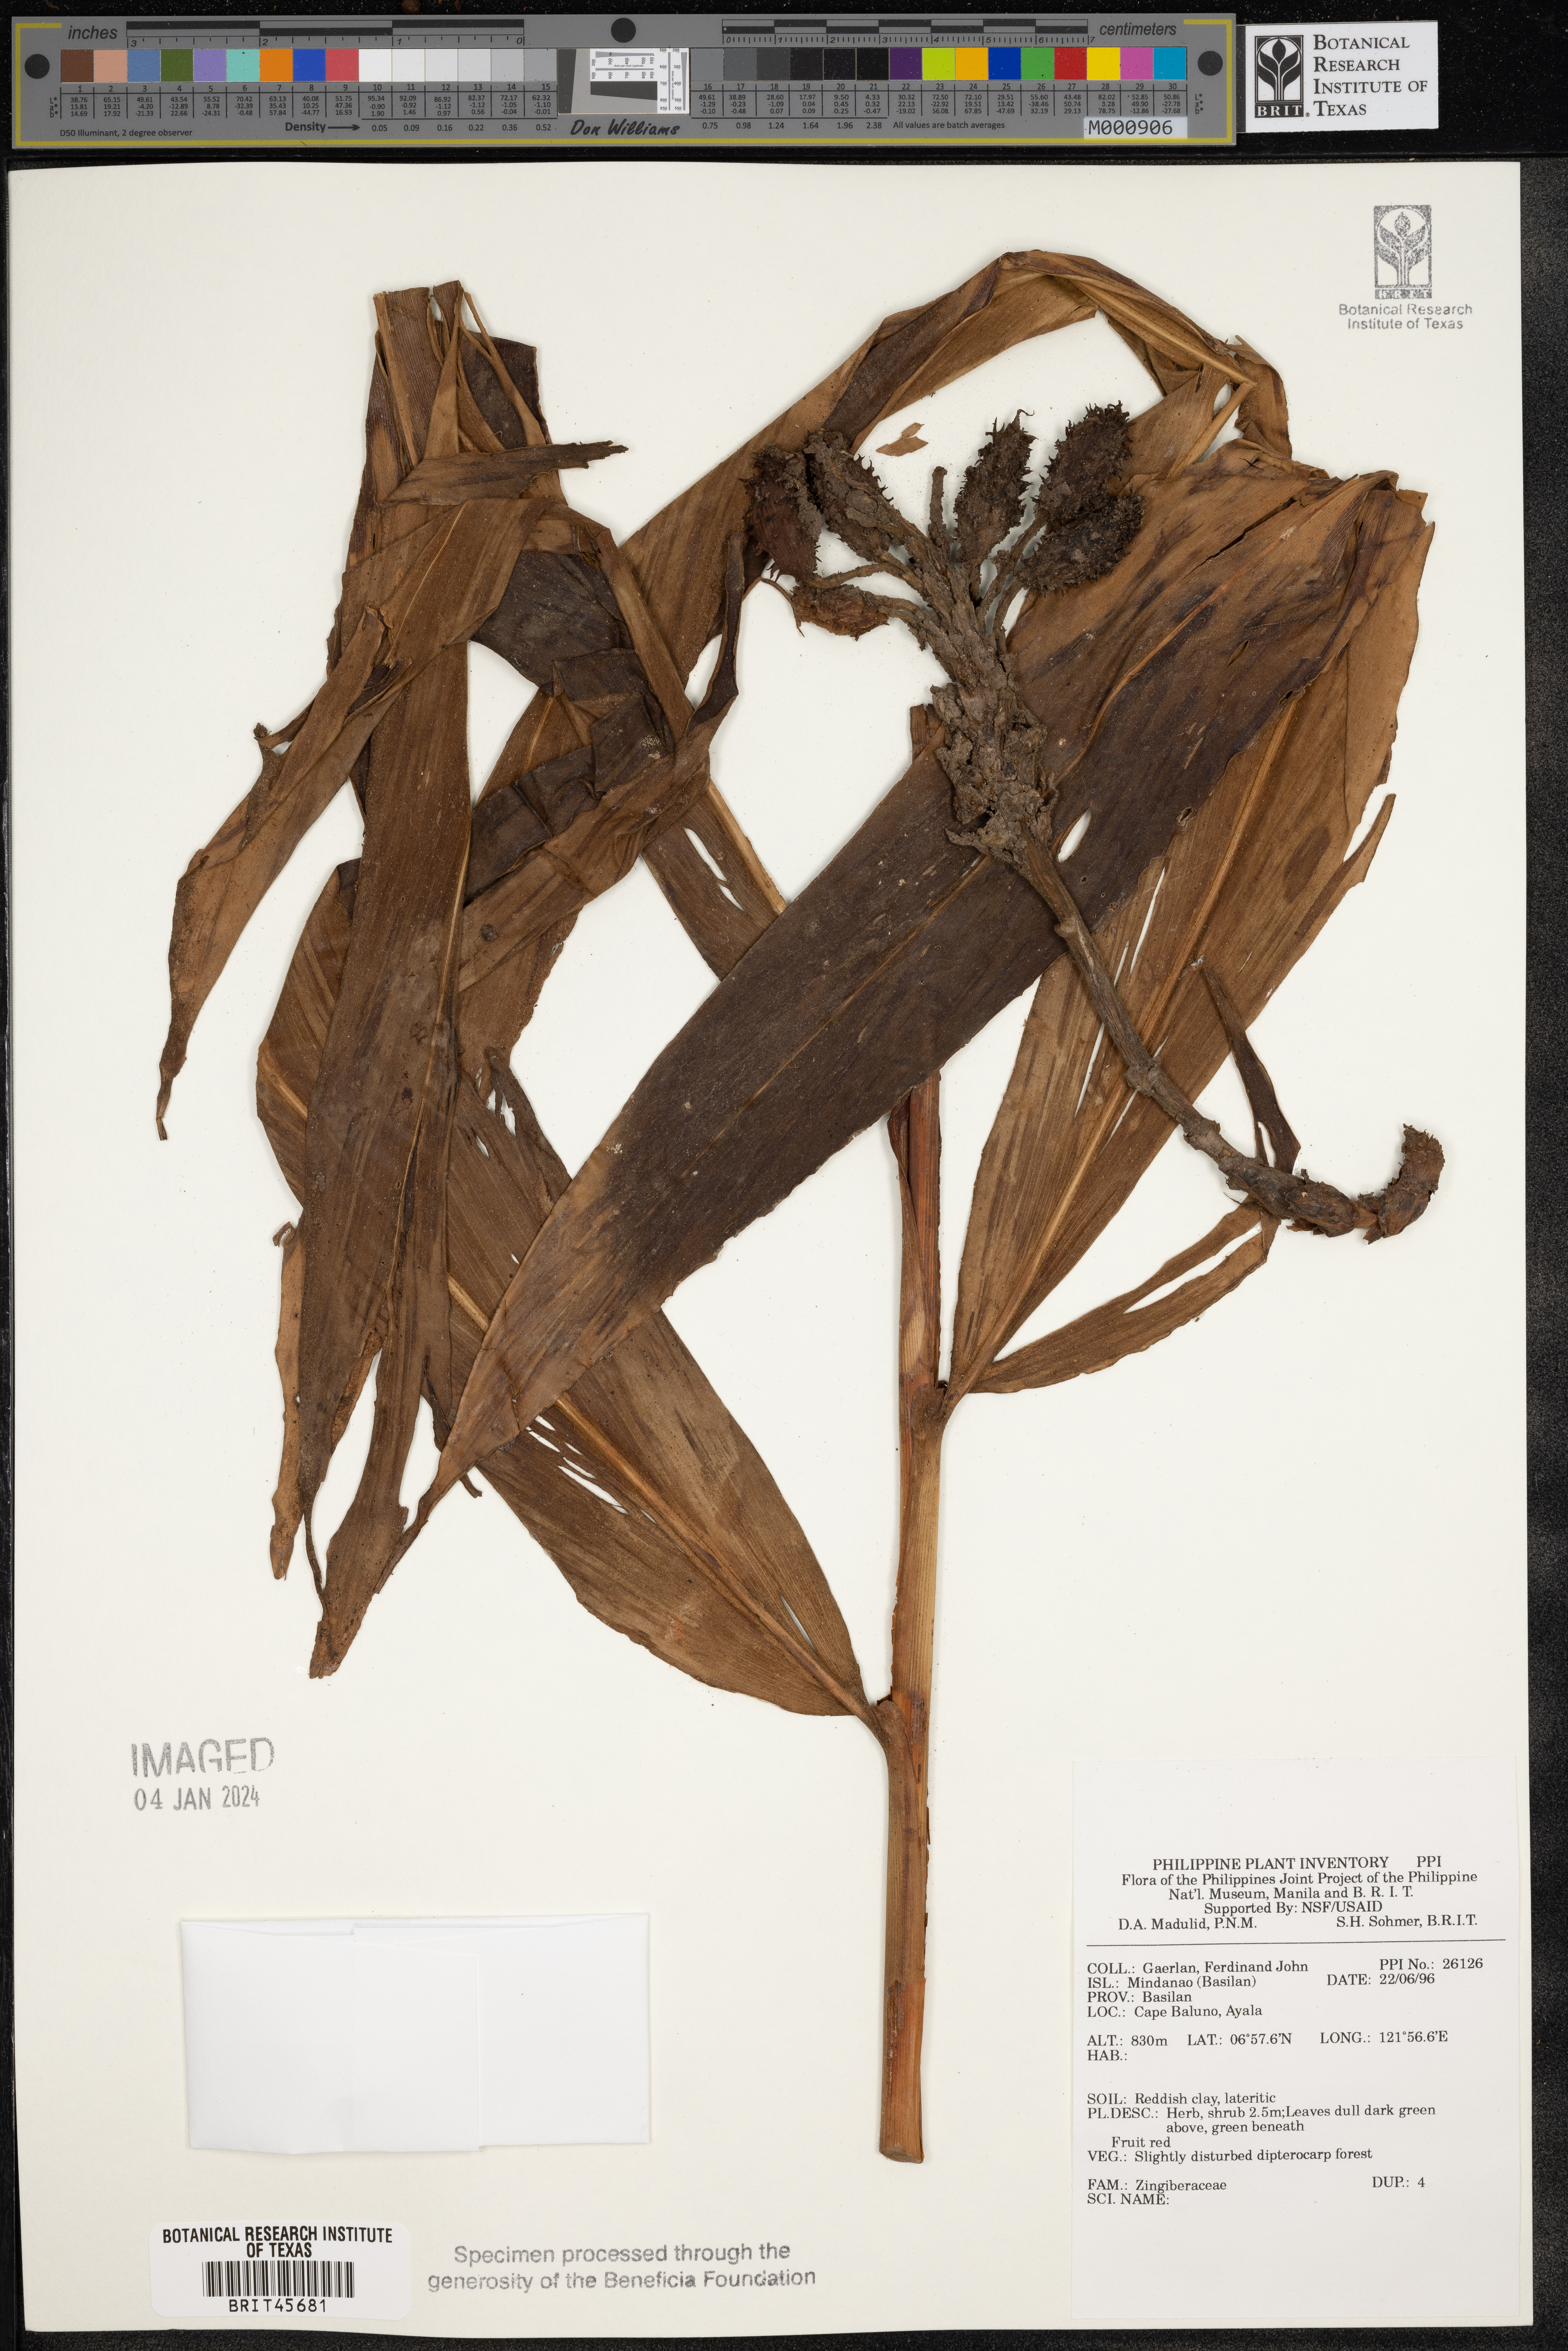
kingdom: Plantae
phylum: Tracheophyta
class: Liliopsida
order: Zingiberales
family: Zingiberaceae
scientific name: Zingiberaceae
